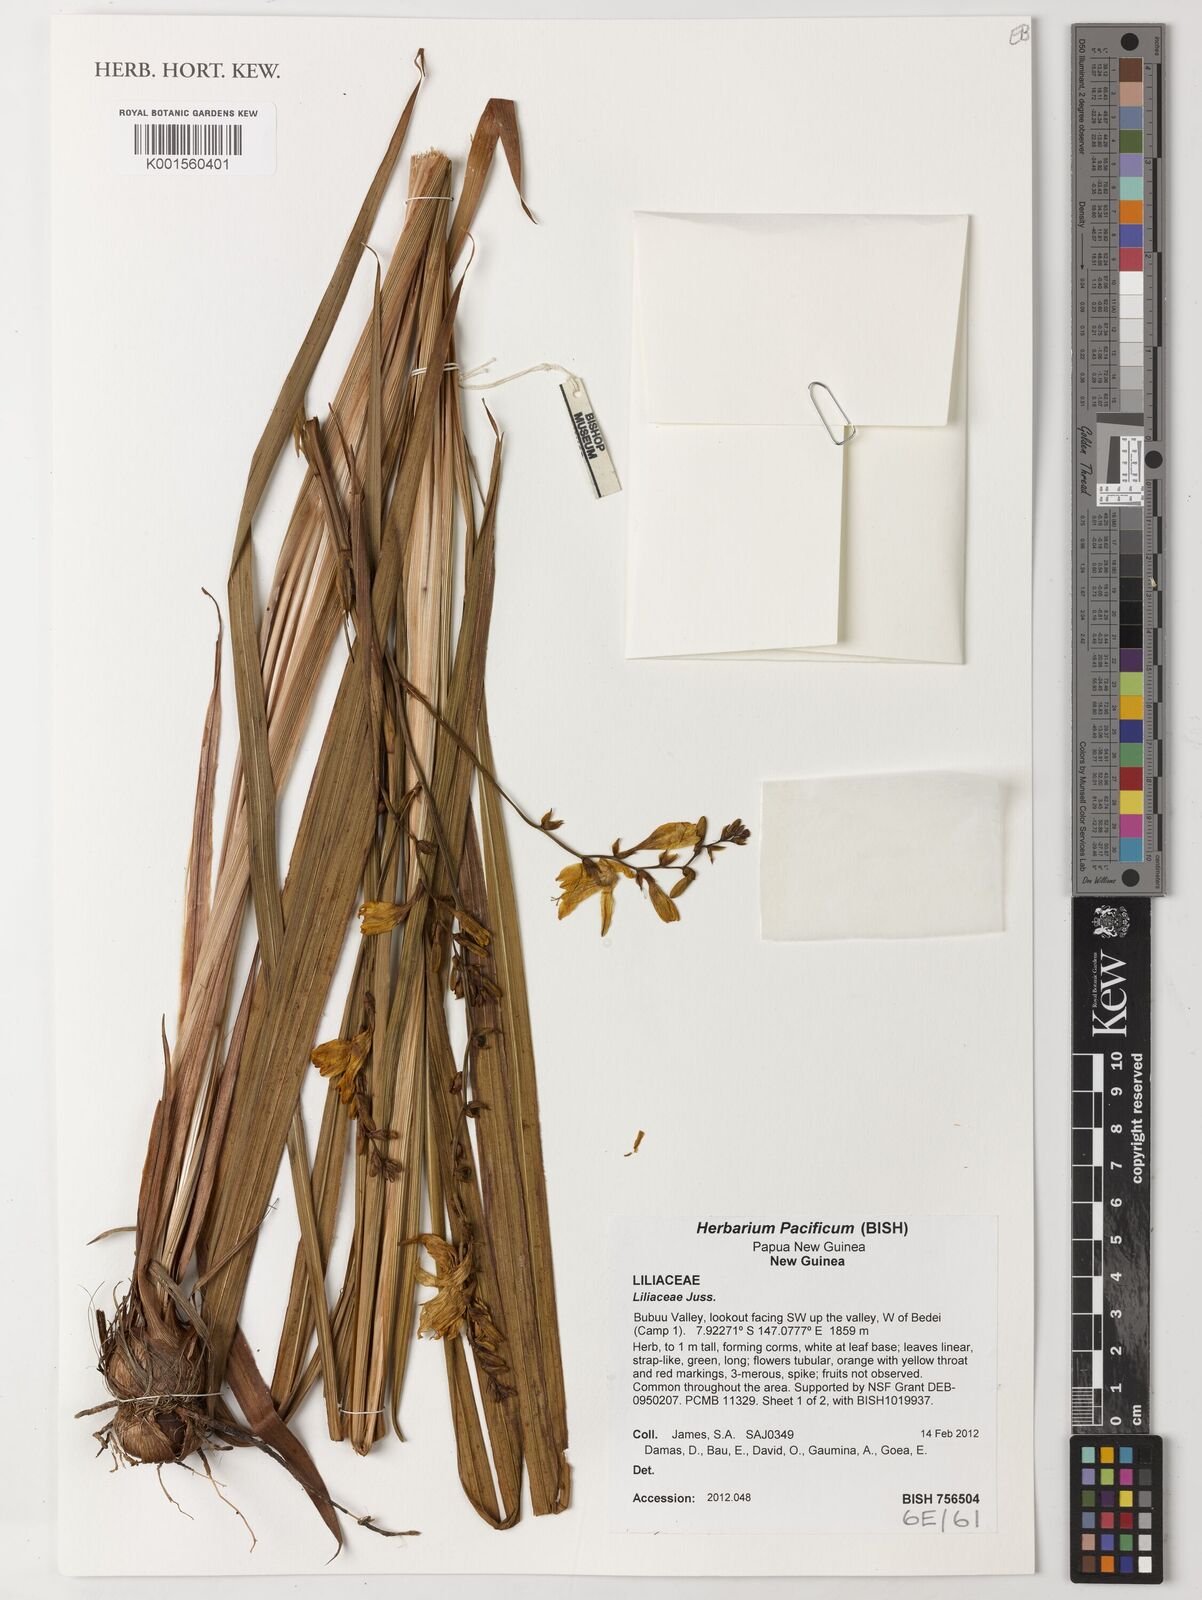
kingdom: Plantae
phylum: Tracheophyta
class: Liliopsida
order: Asparagales
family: Iridaceae
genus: Crocosmia
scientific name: Crocosmia crocosmiiflora
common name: Montbretia
